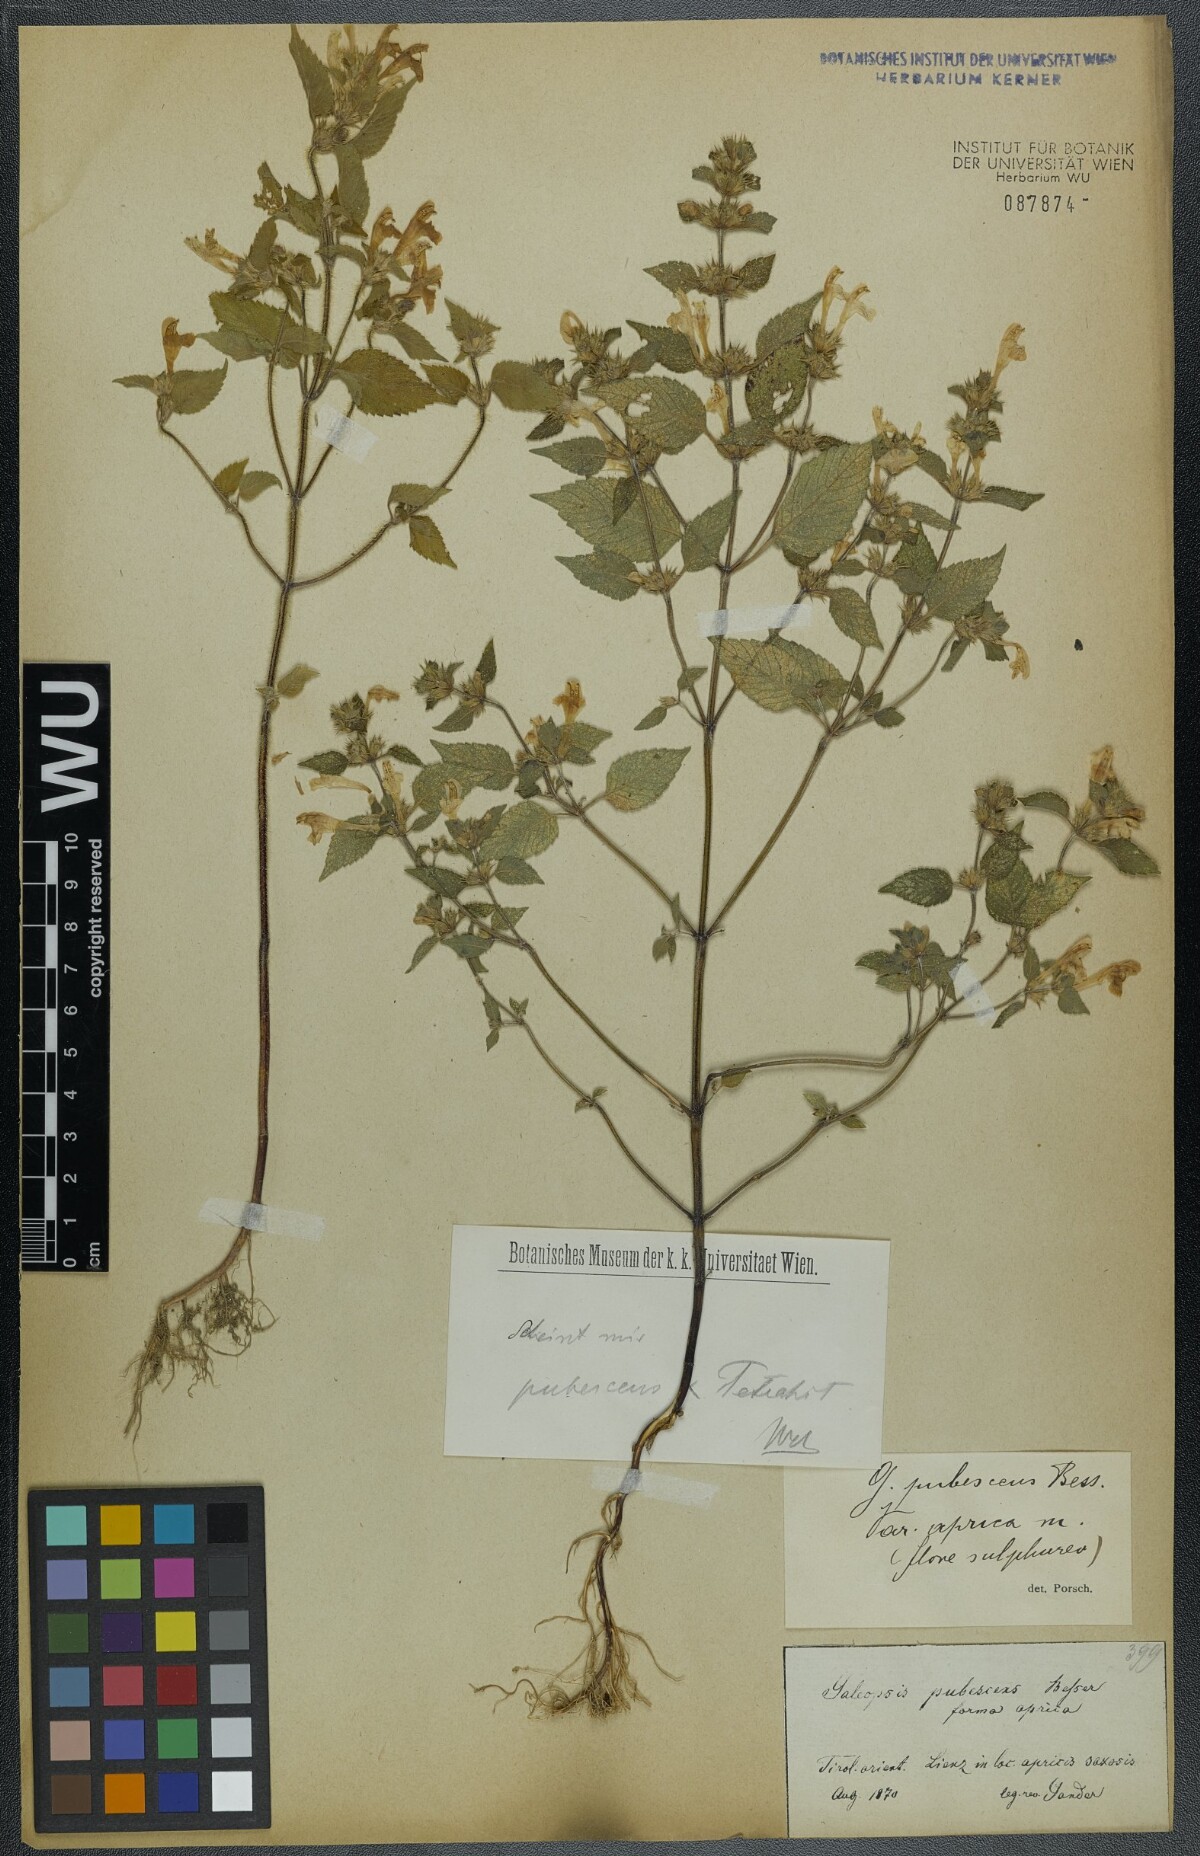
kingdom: Plantae
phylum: Tracheophyta
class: Magnoliopsida
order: Lamiales
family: Lamiaceae
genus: Galeopsis
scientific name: Galeopsis pubescens
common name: Downy hemp-nettle
